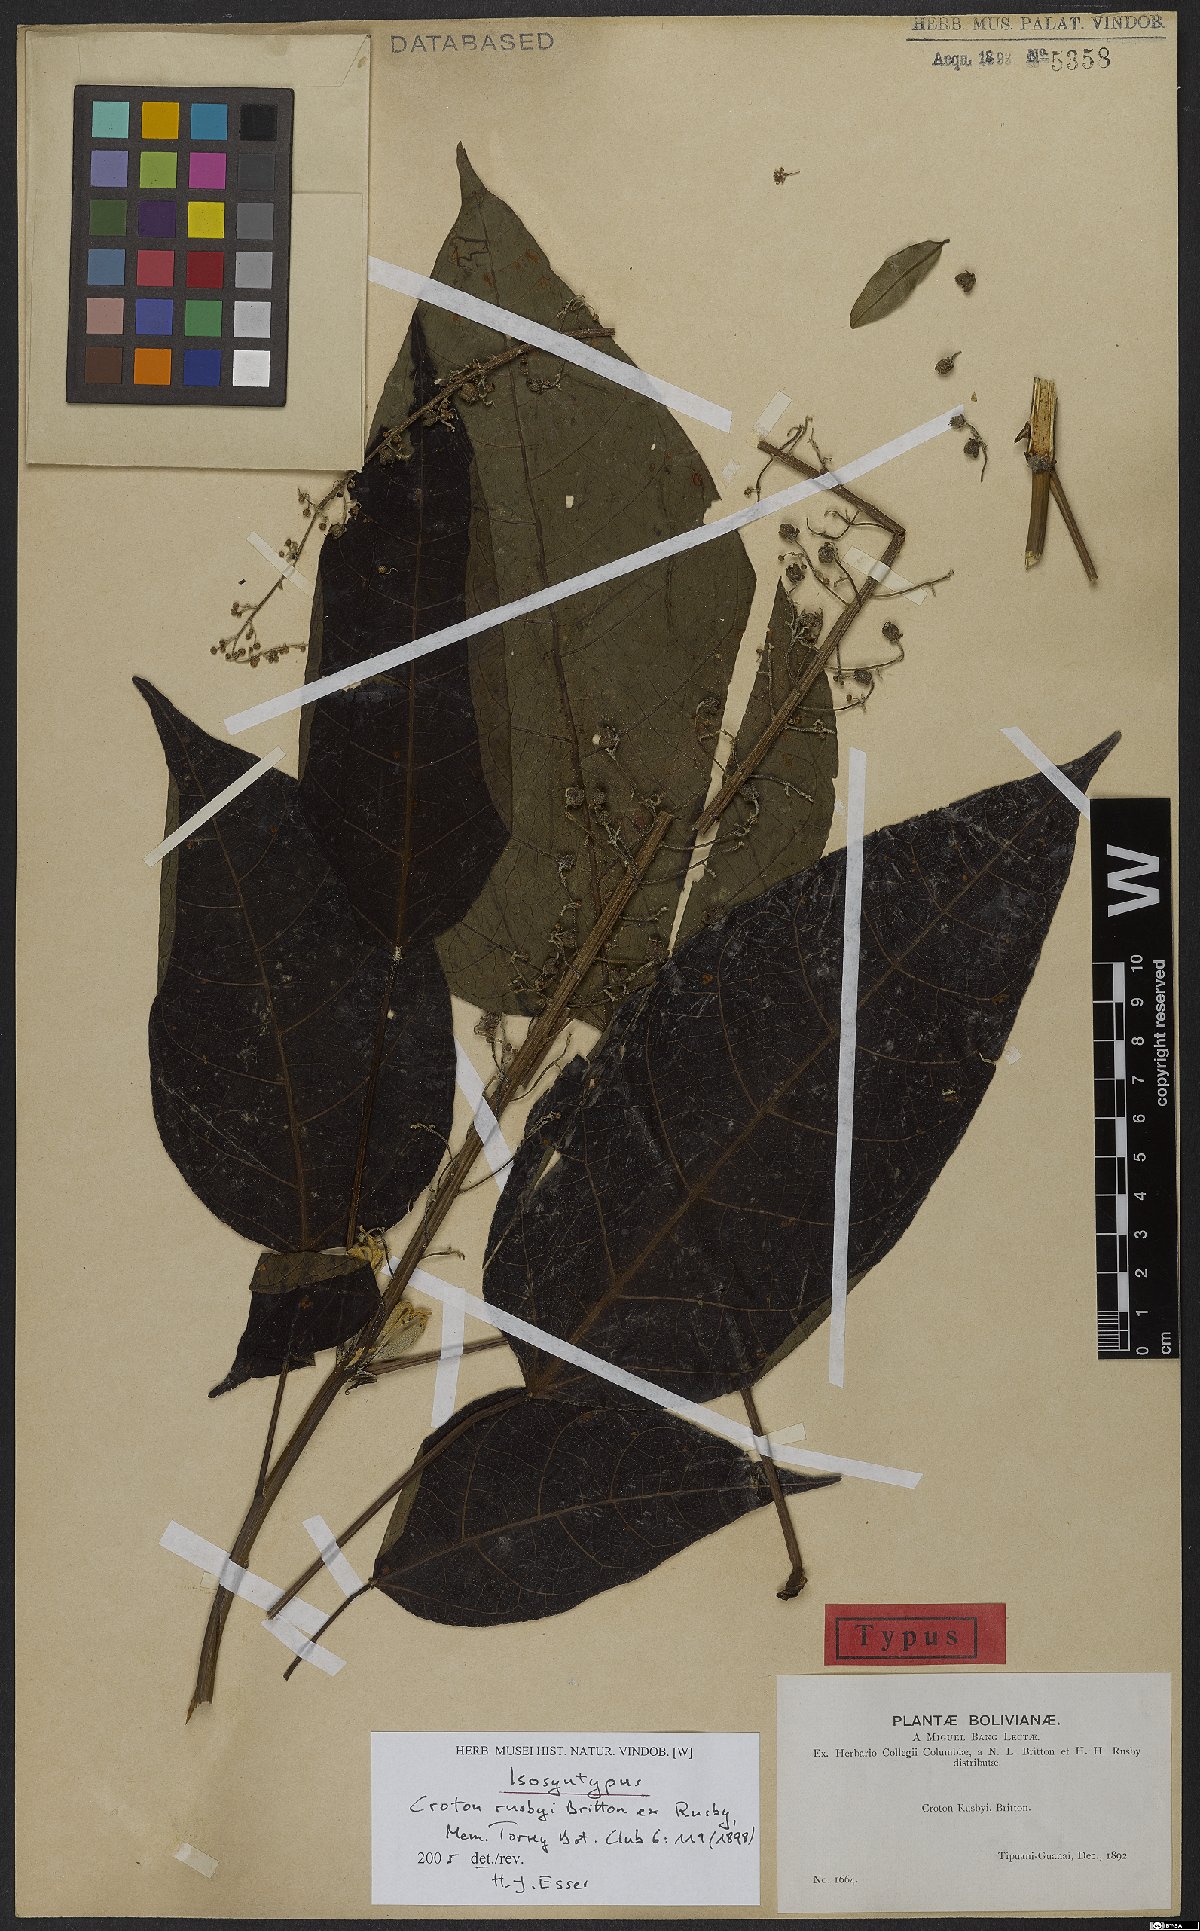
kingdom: Plantae
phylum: Tracheophyta
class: Magnoliopsida
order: Malpighiales
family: Euphorbiaceae
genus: Croton
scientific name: Croton rusbyi
